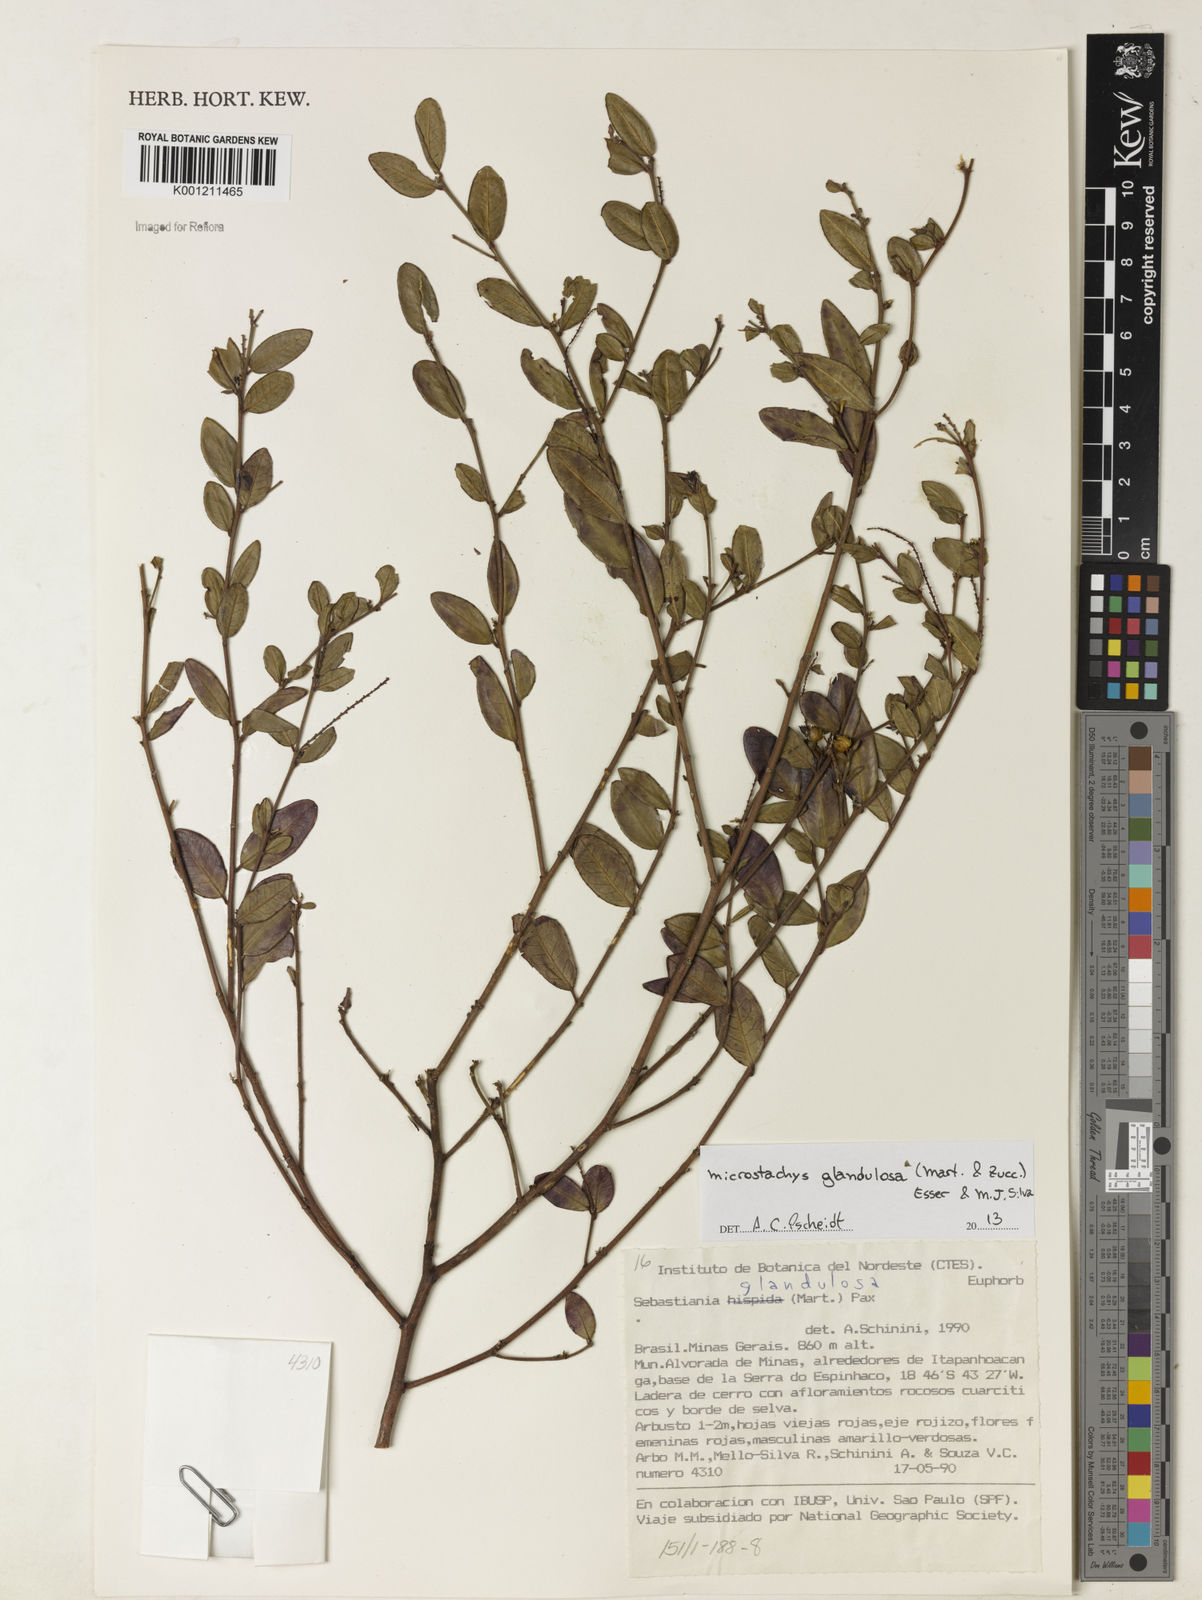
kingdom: Plantae
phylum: Tracheophyta
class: Magnoliopsida
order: Malpighiales
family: Euphorbiaceae
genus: Microstachys
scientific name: Microstachys glandulosa
